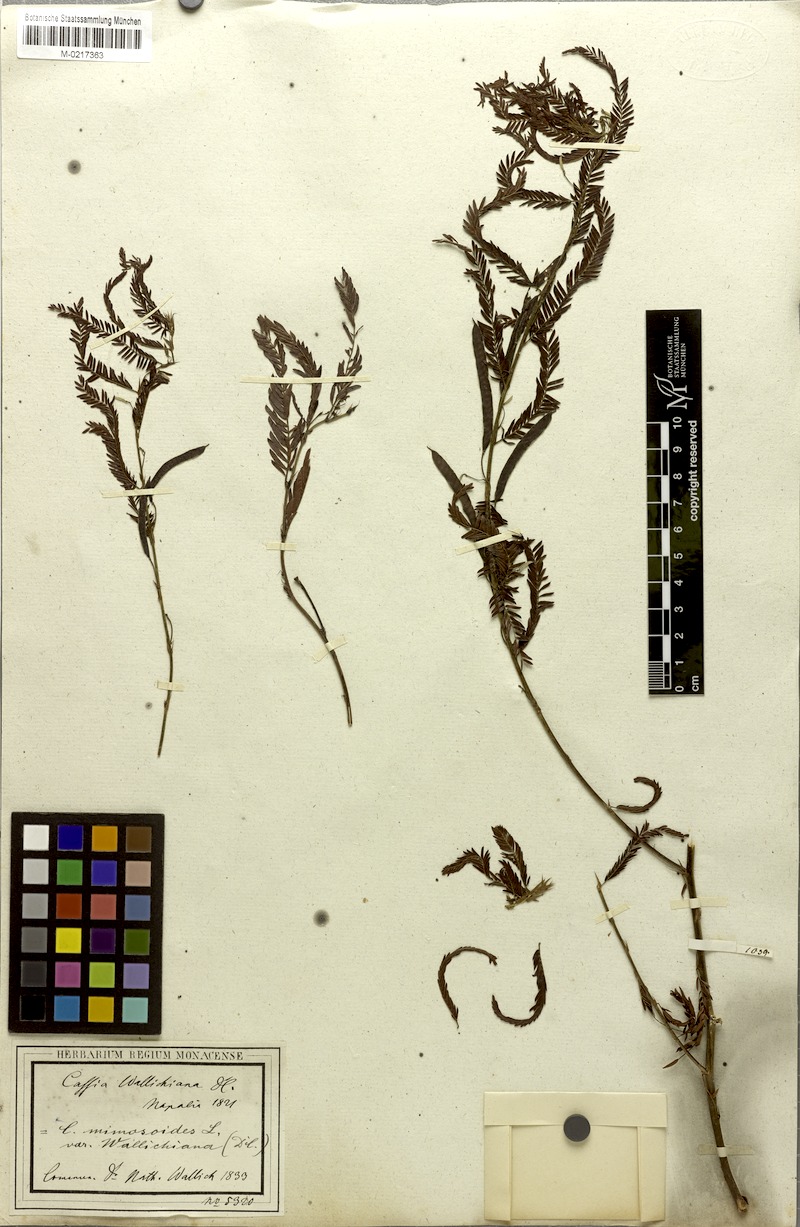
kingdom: Plantae
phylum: Tracheophyta
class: Magnoliopsida
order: Fabales
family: Fabaceae
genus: Chamaecrista
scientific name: Chamaecrista leschenaultiana
